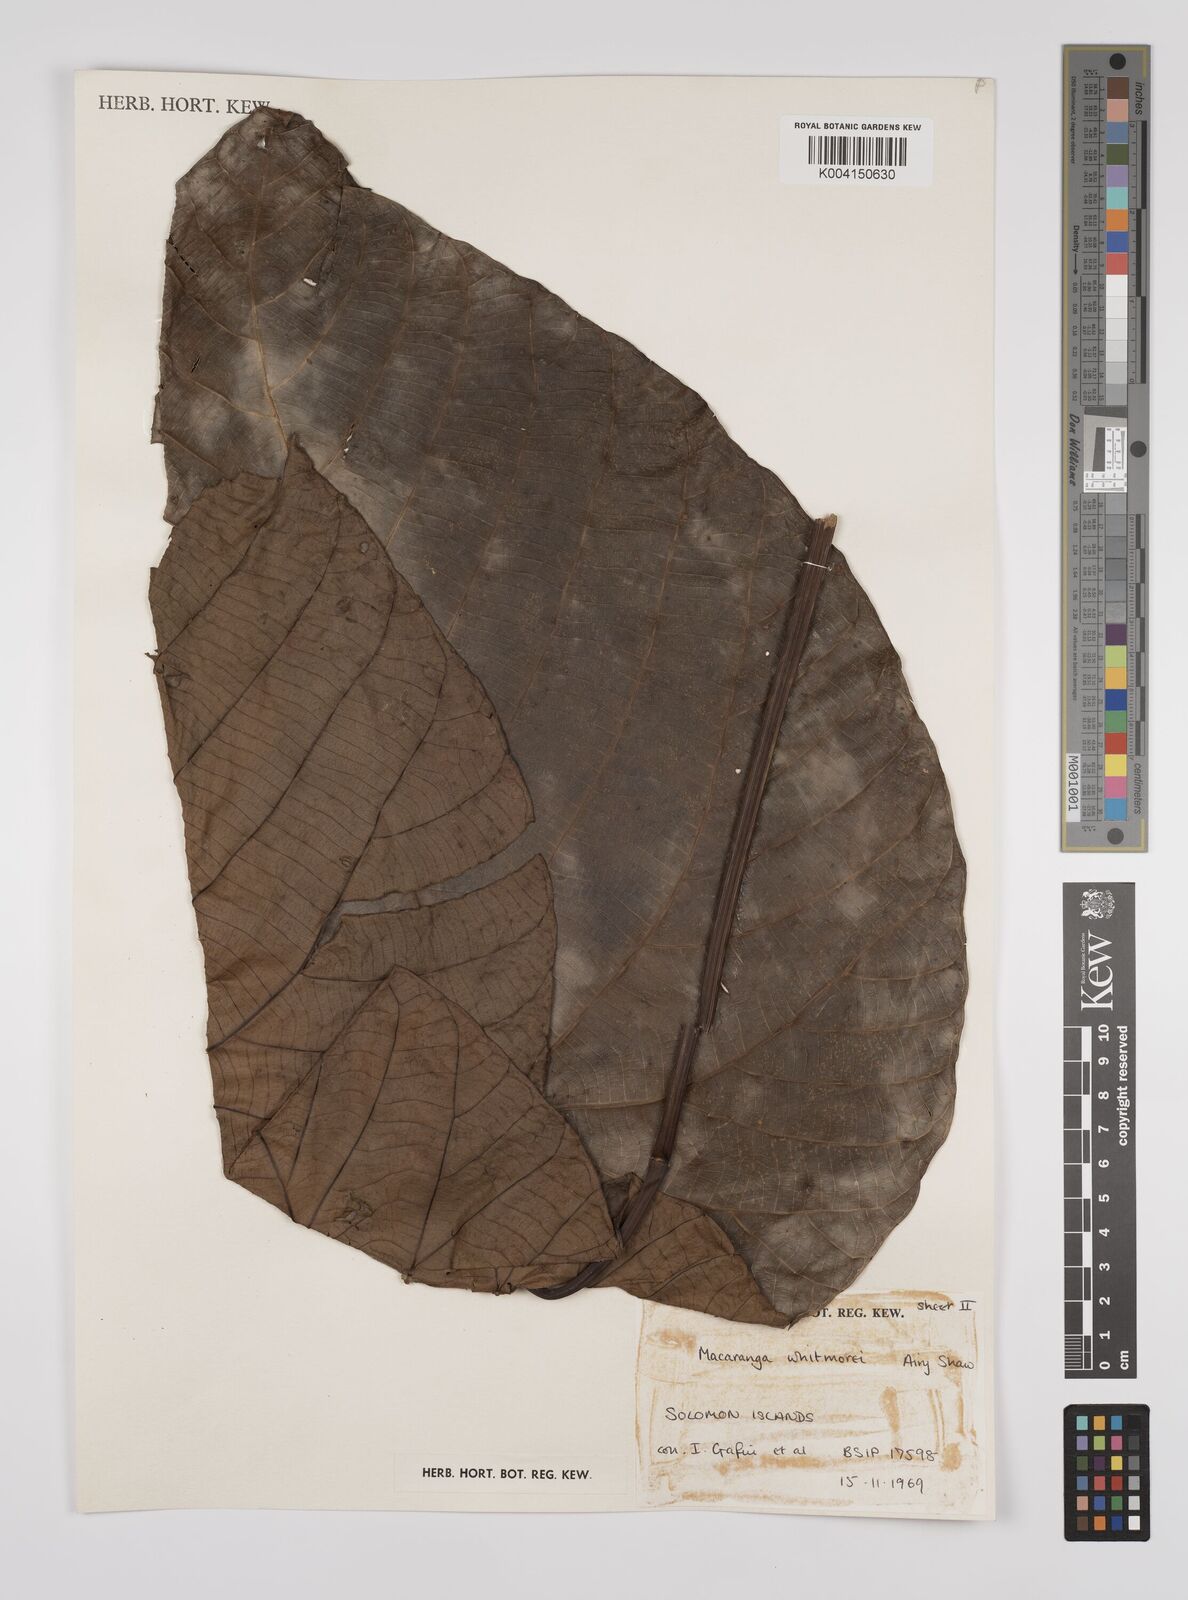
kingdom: Plantae
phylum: Tracheophyta
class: Magnoliopsida
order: Malpighiales
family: Euphorbiaceae
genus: Macaranga
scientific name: Macaranga whitmorei
